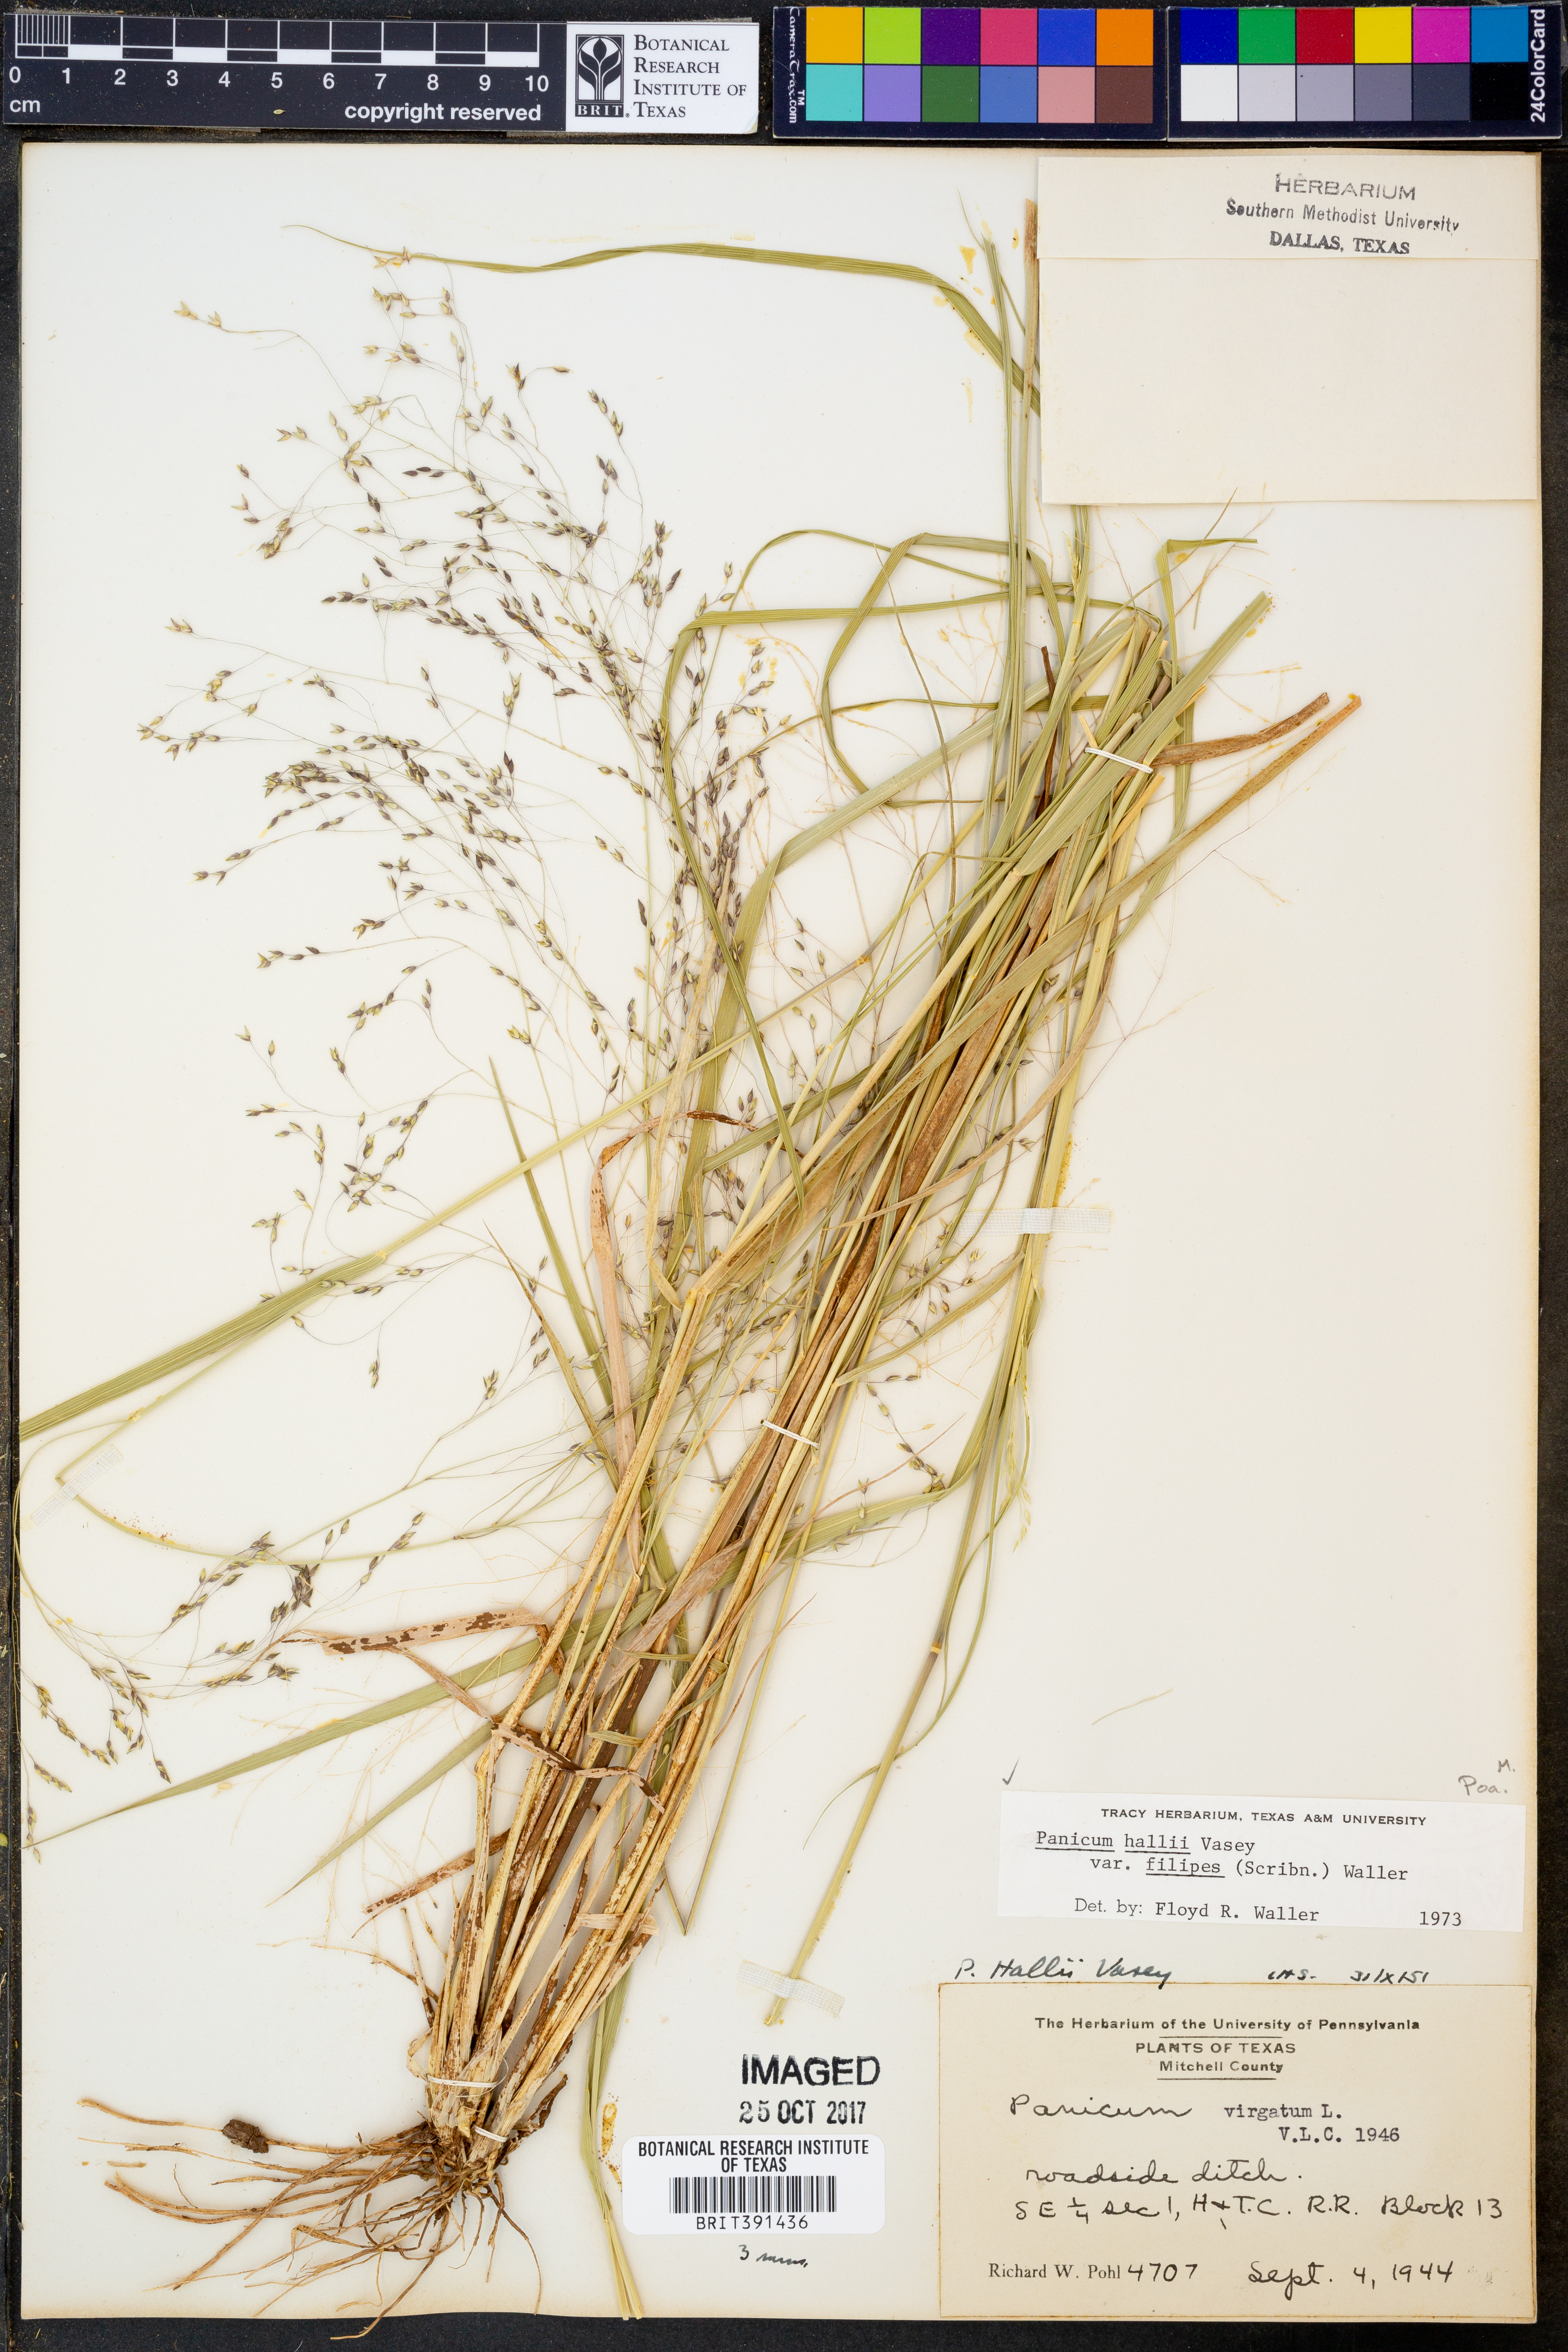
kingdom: Plantae
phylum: Tracheophyta
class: Liliopsida
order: Poales
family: Poaceae
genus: Panicum
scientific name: Panicum hallii
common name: Hall's witchgrass
